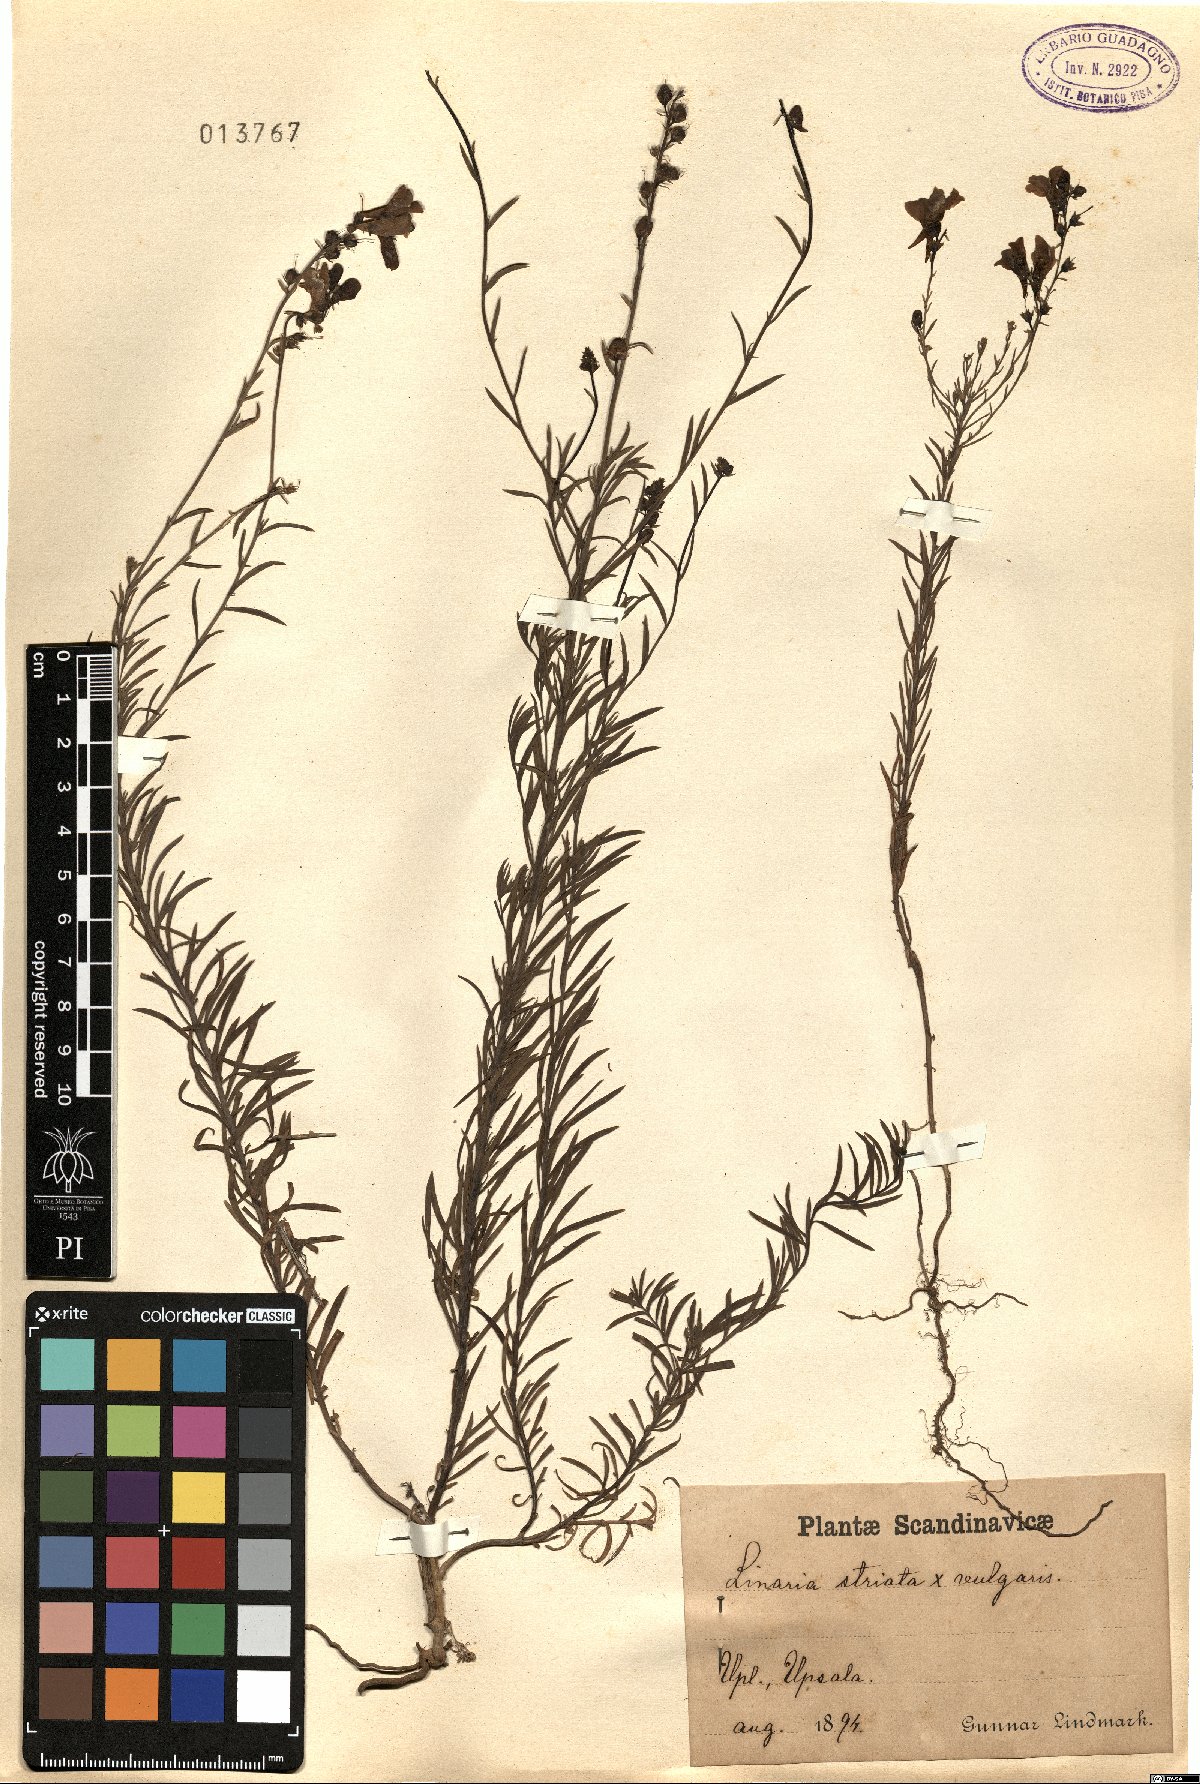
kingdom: Plantae
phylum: Tracheophyta
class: Magnoliopsida
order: Lamiales
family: Plantaginaceae
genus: Linaria
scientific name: Linaria repens
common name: Pale toadflax
